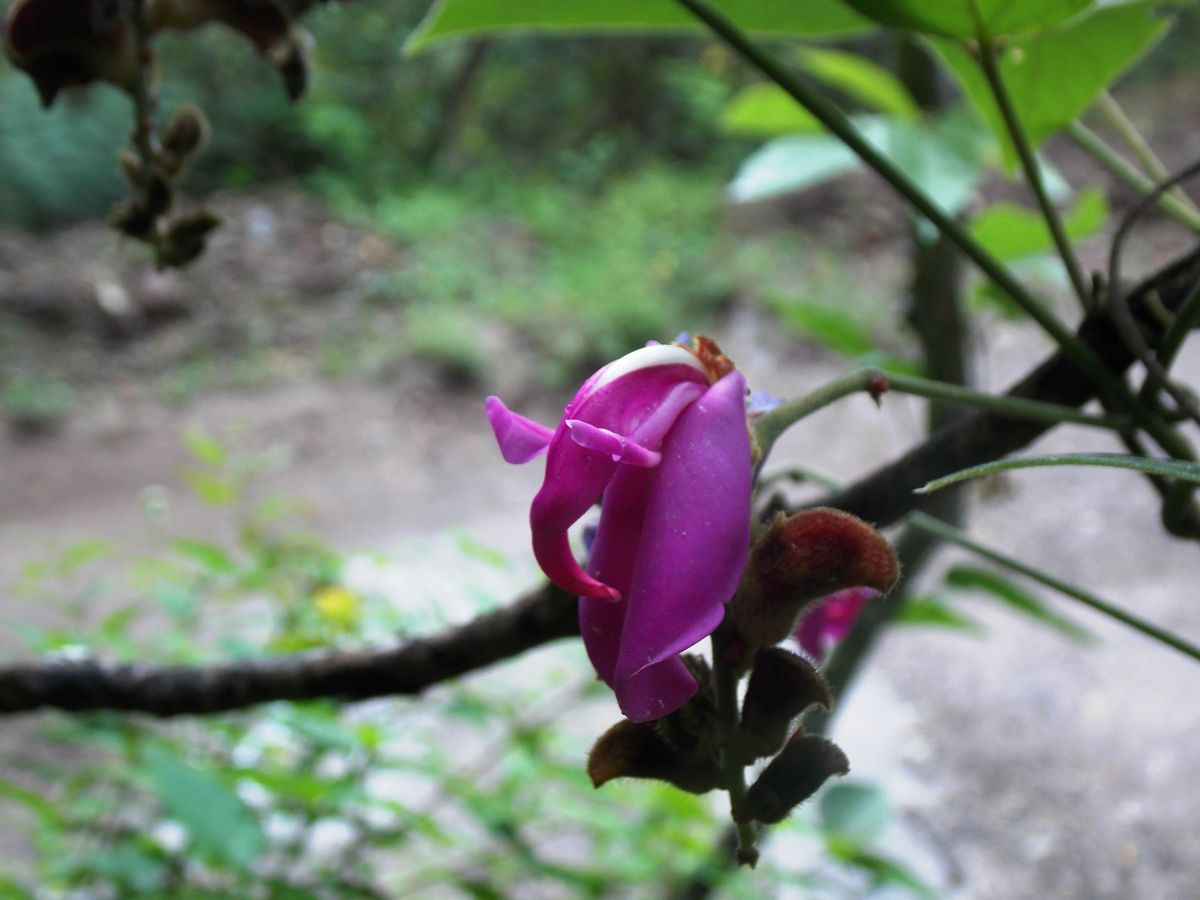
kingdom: Plantae
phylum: Tracheophyta
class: Magnoliopsida
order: Fabales
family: Fabaceae
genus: Galactia
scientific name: Galactia jussiaeana
